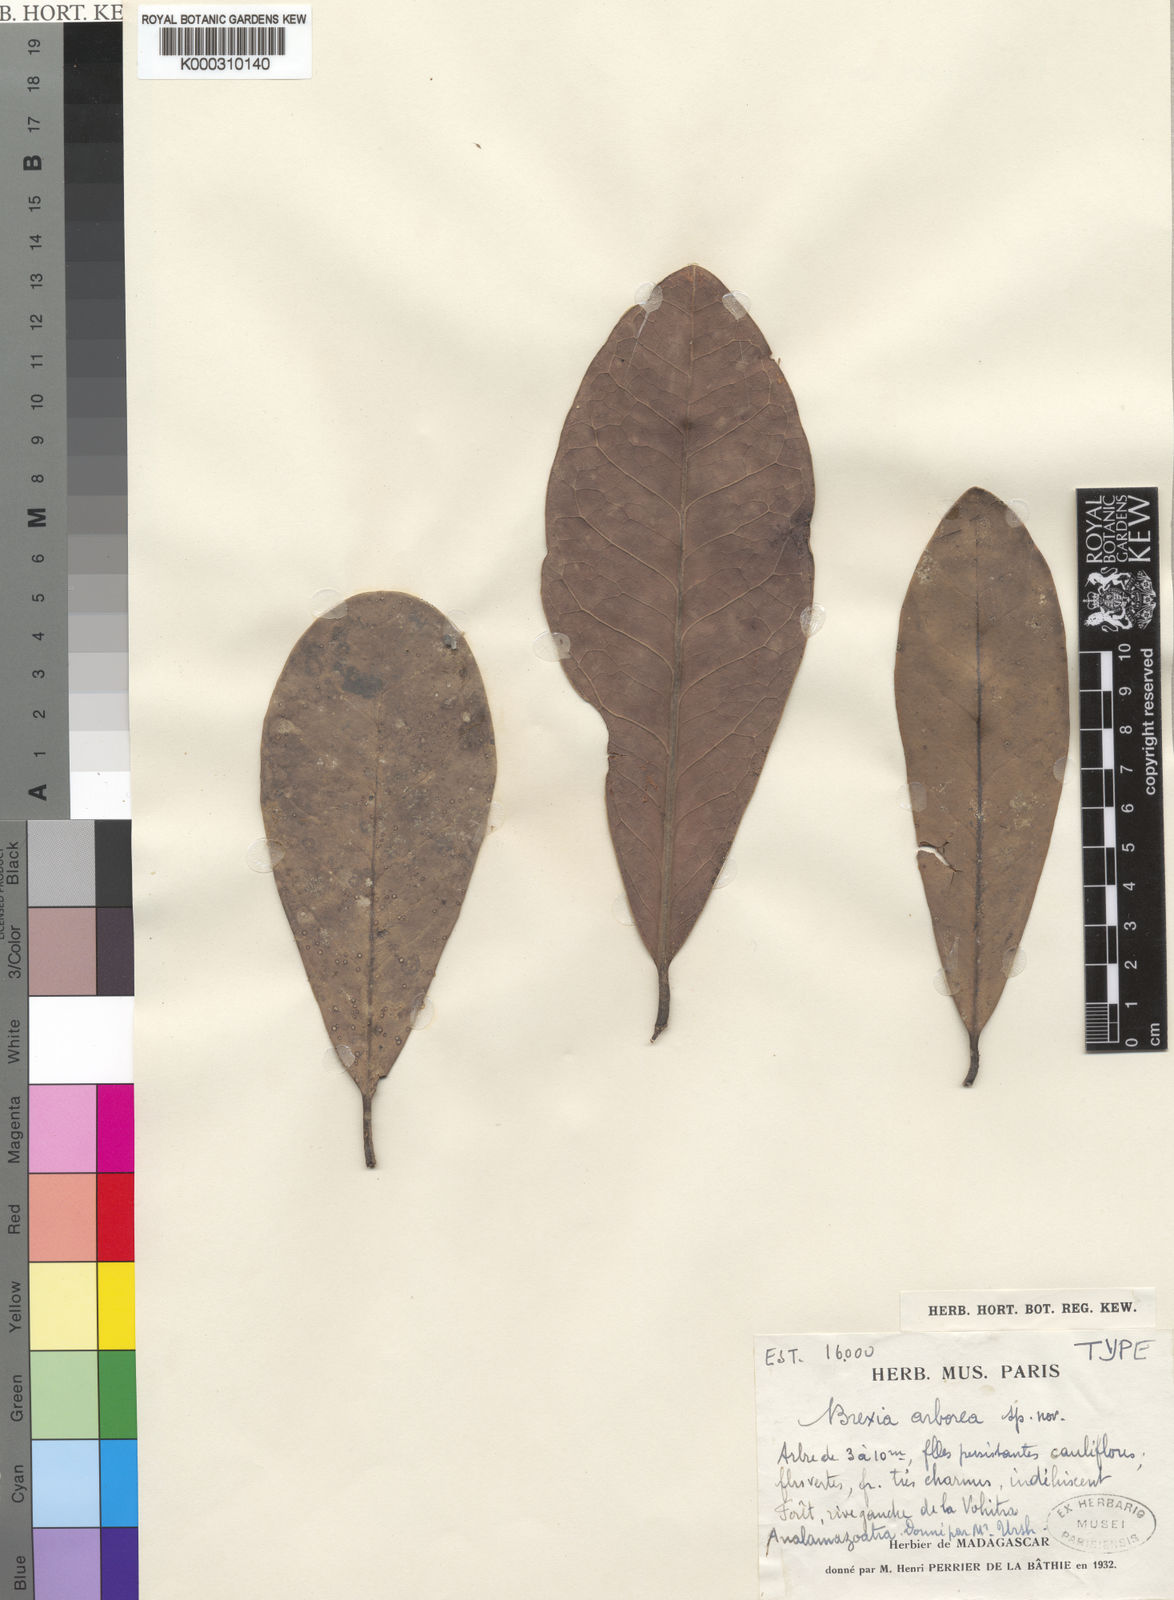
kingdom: Plantae
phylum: Tracheophyta
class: Magnoliopsida
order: Celastrales
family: Celastraceae
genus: Brexia
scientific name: Brexia arborea
